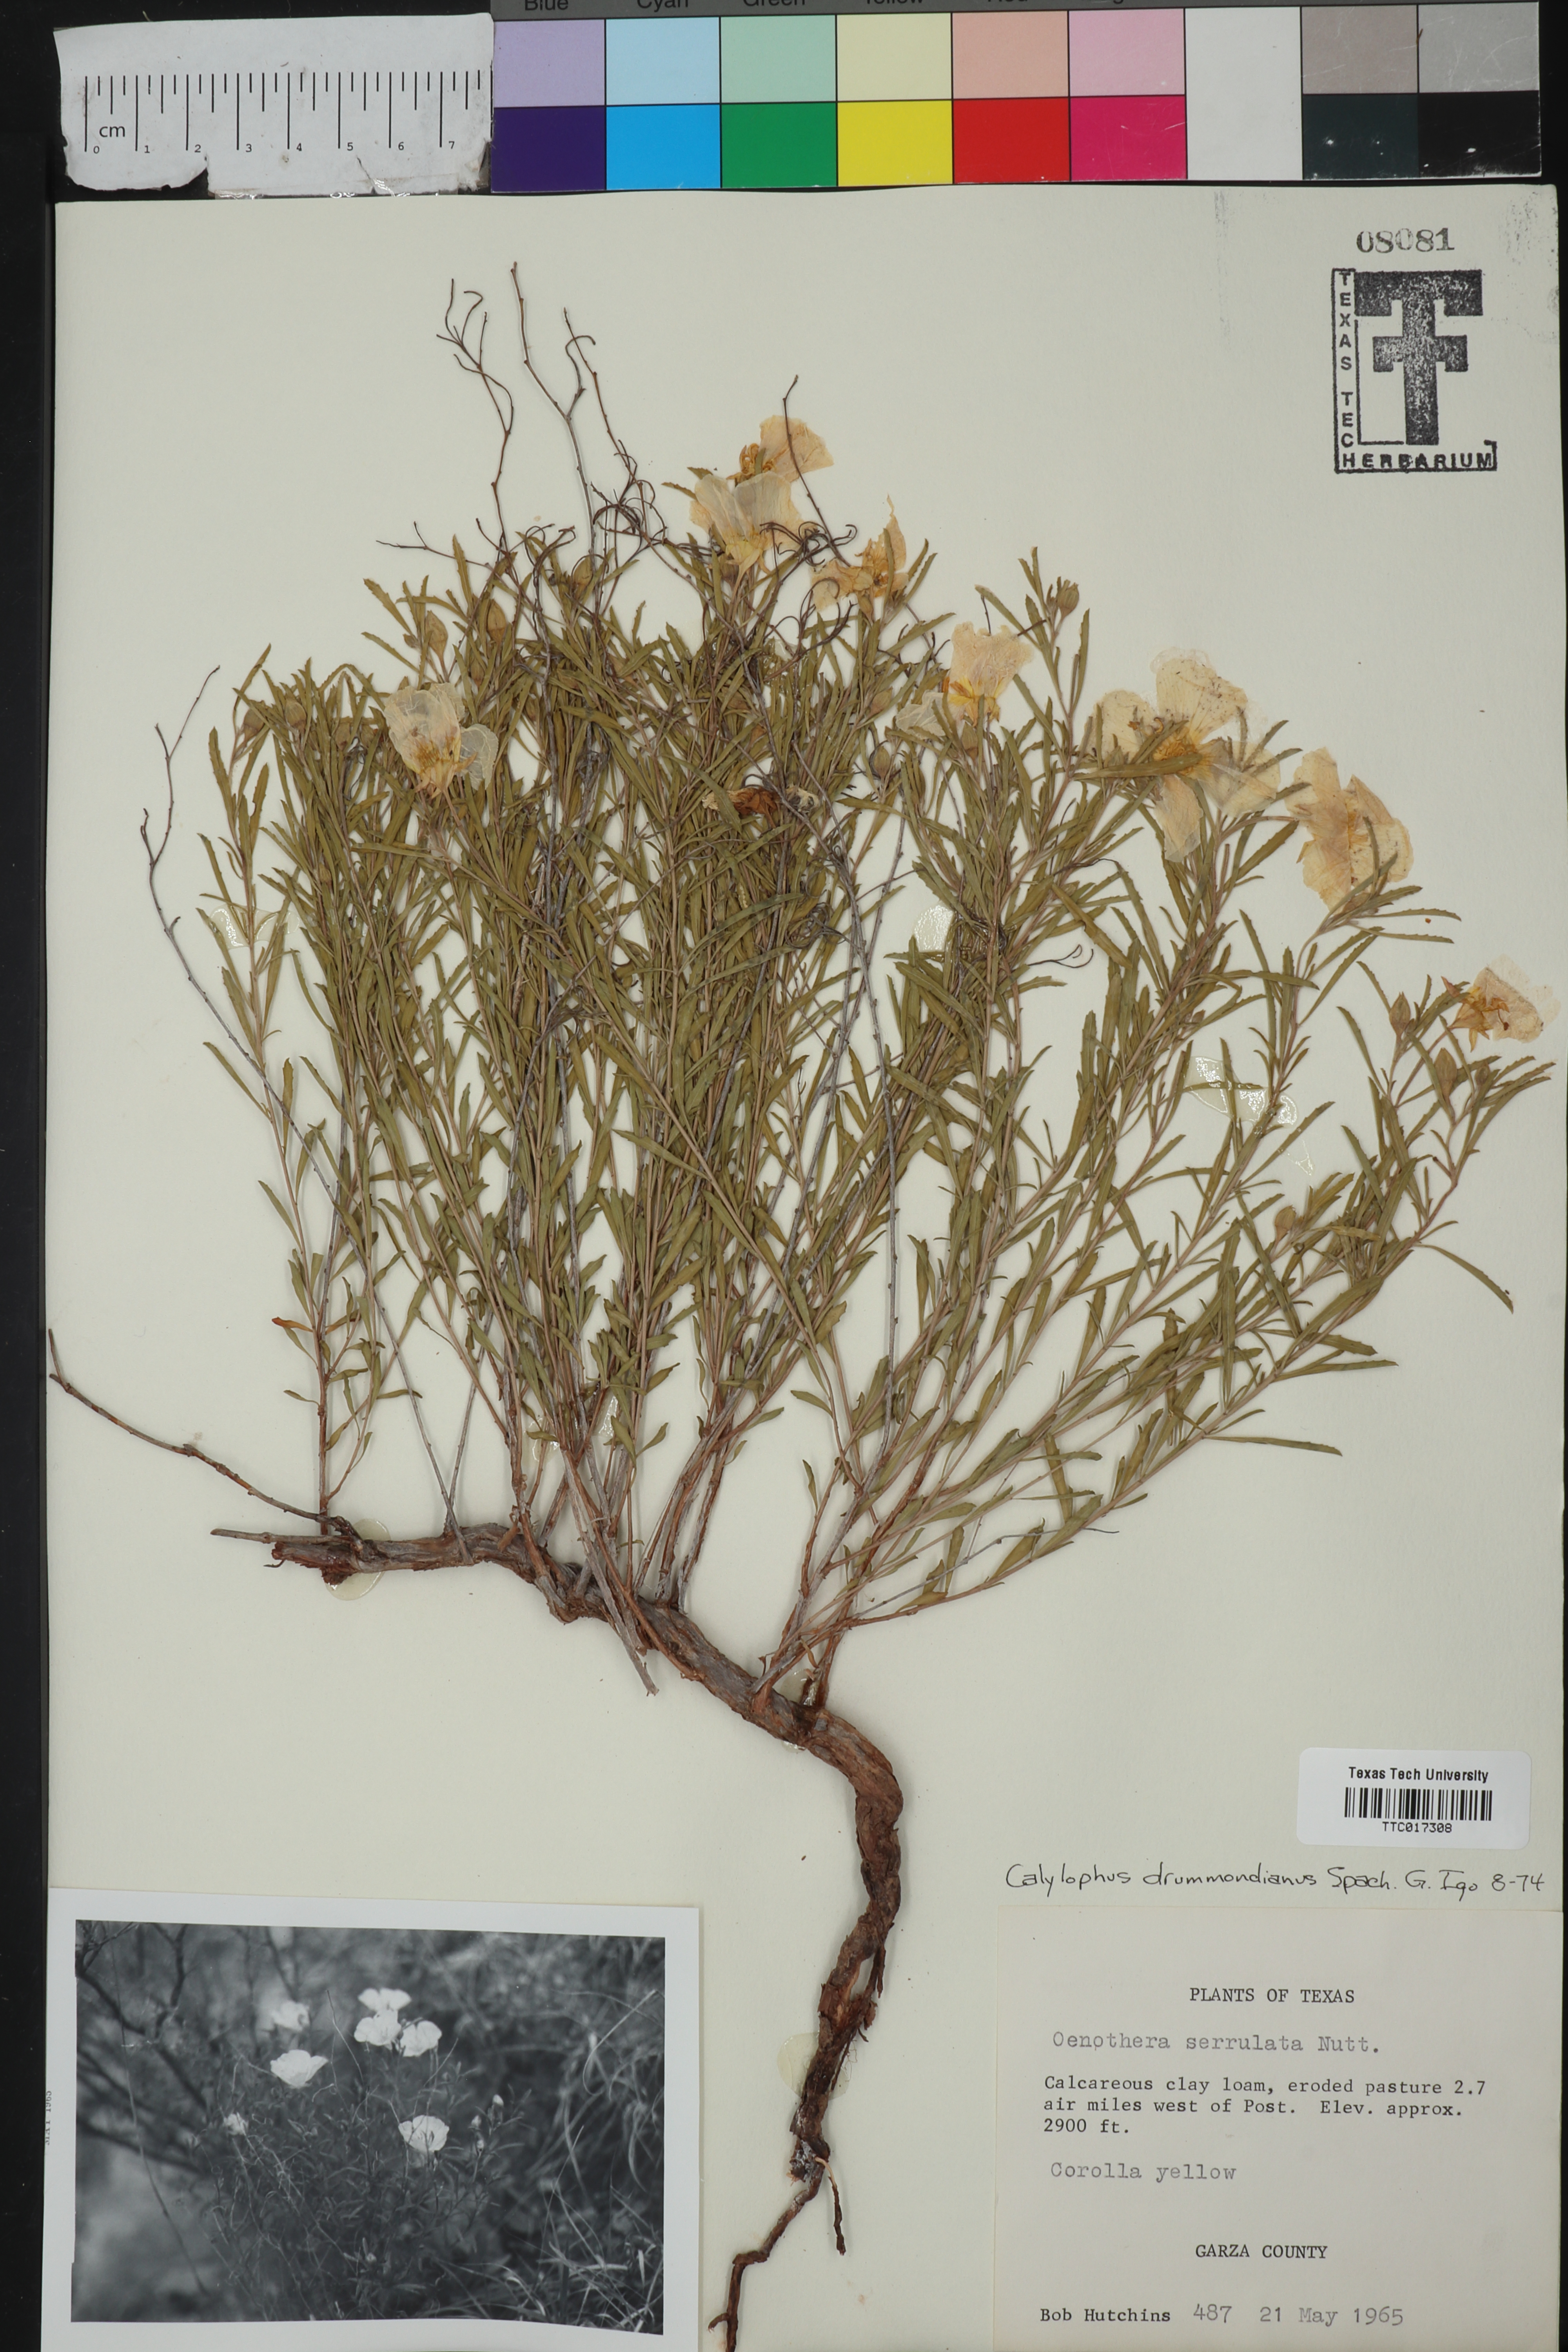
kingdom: Plantae
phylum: Tracheophyta
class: Magnoliopsida
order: Myrtales
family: Onagraceae
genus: Oenothera
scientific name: Oenothera serrulata
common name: Half-shrub calylophus
